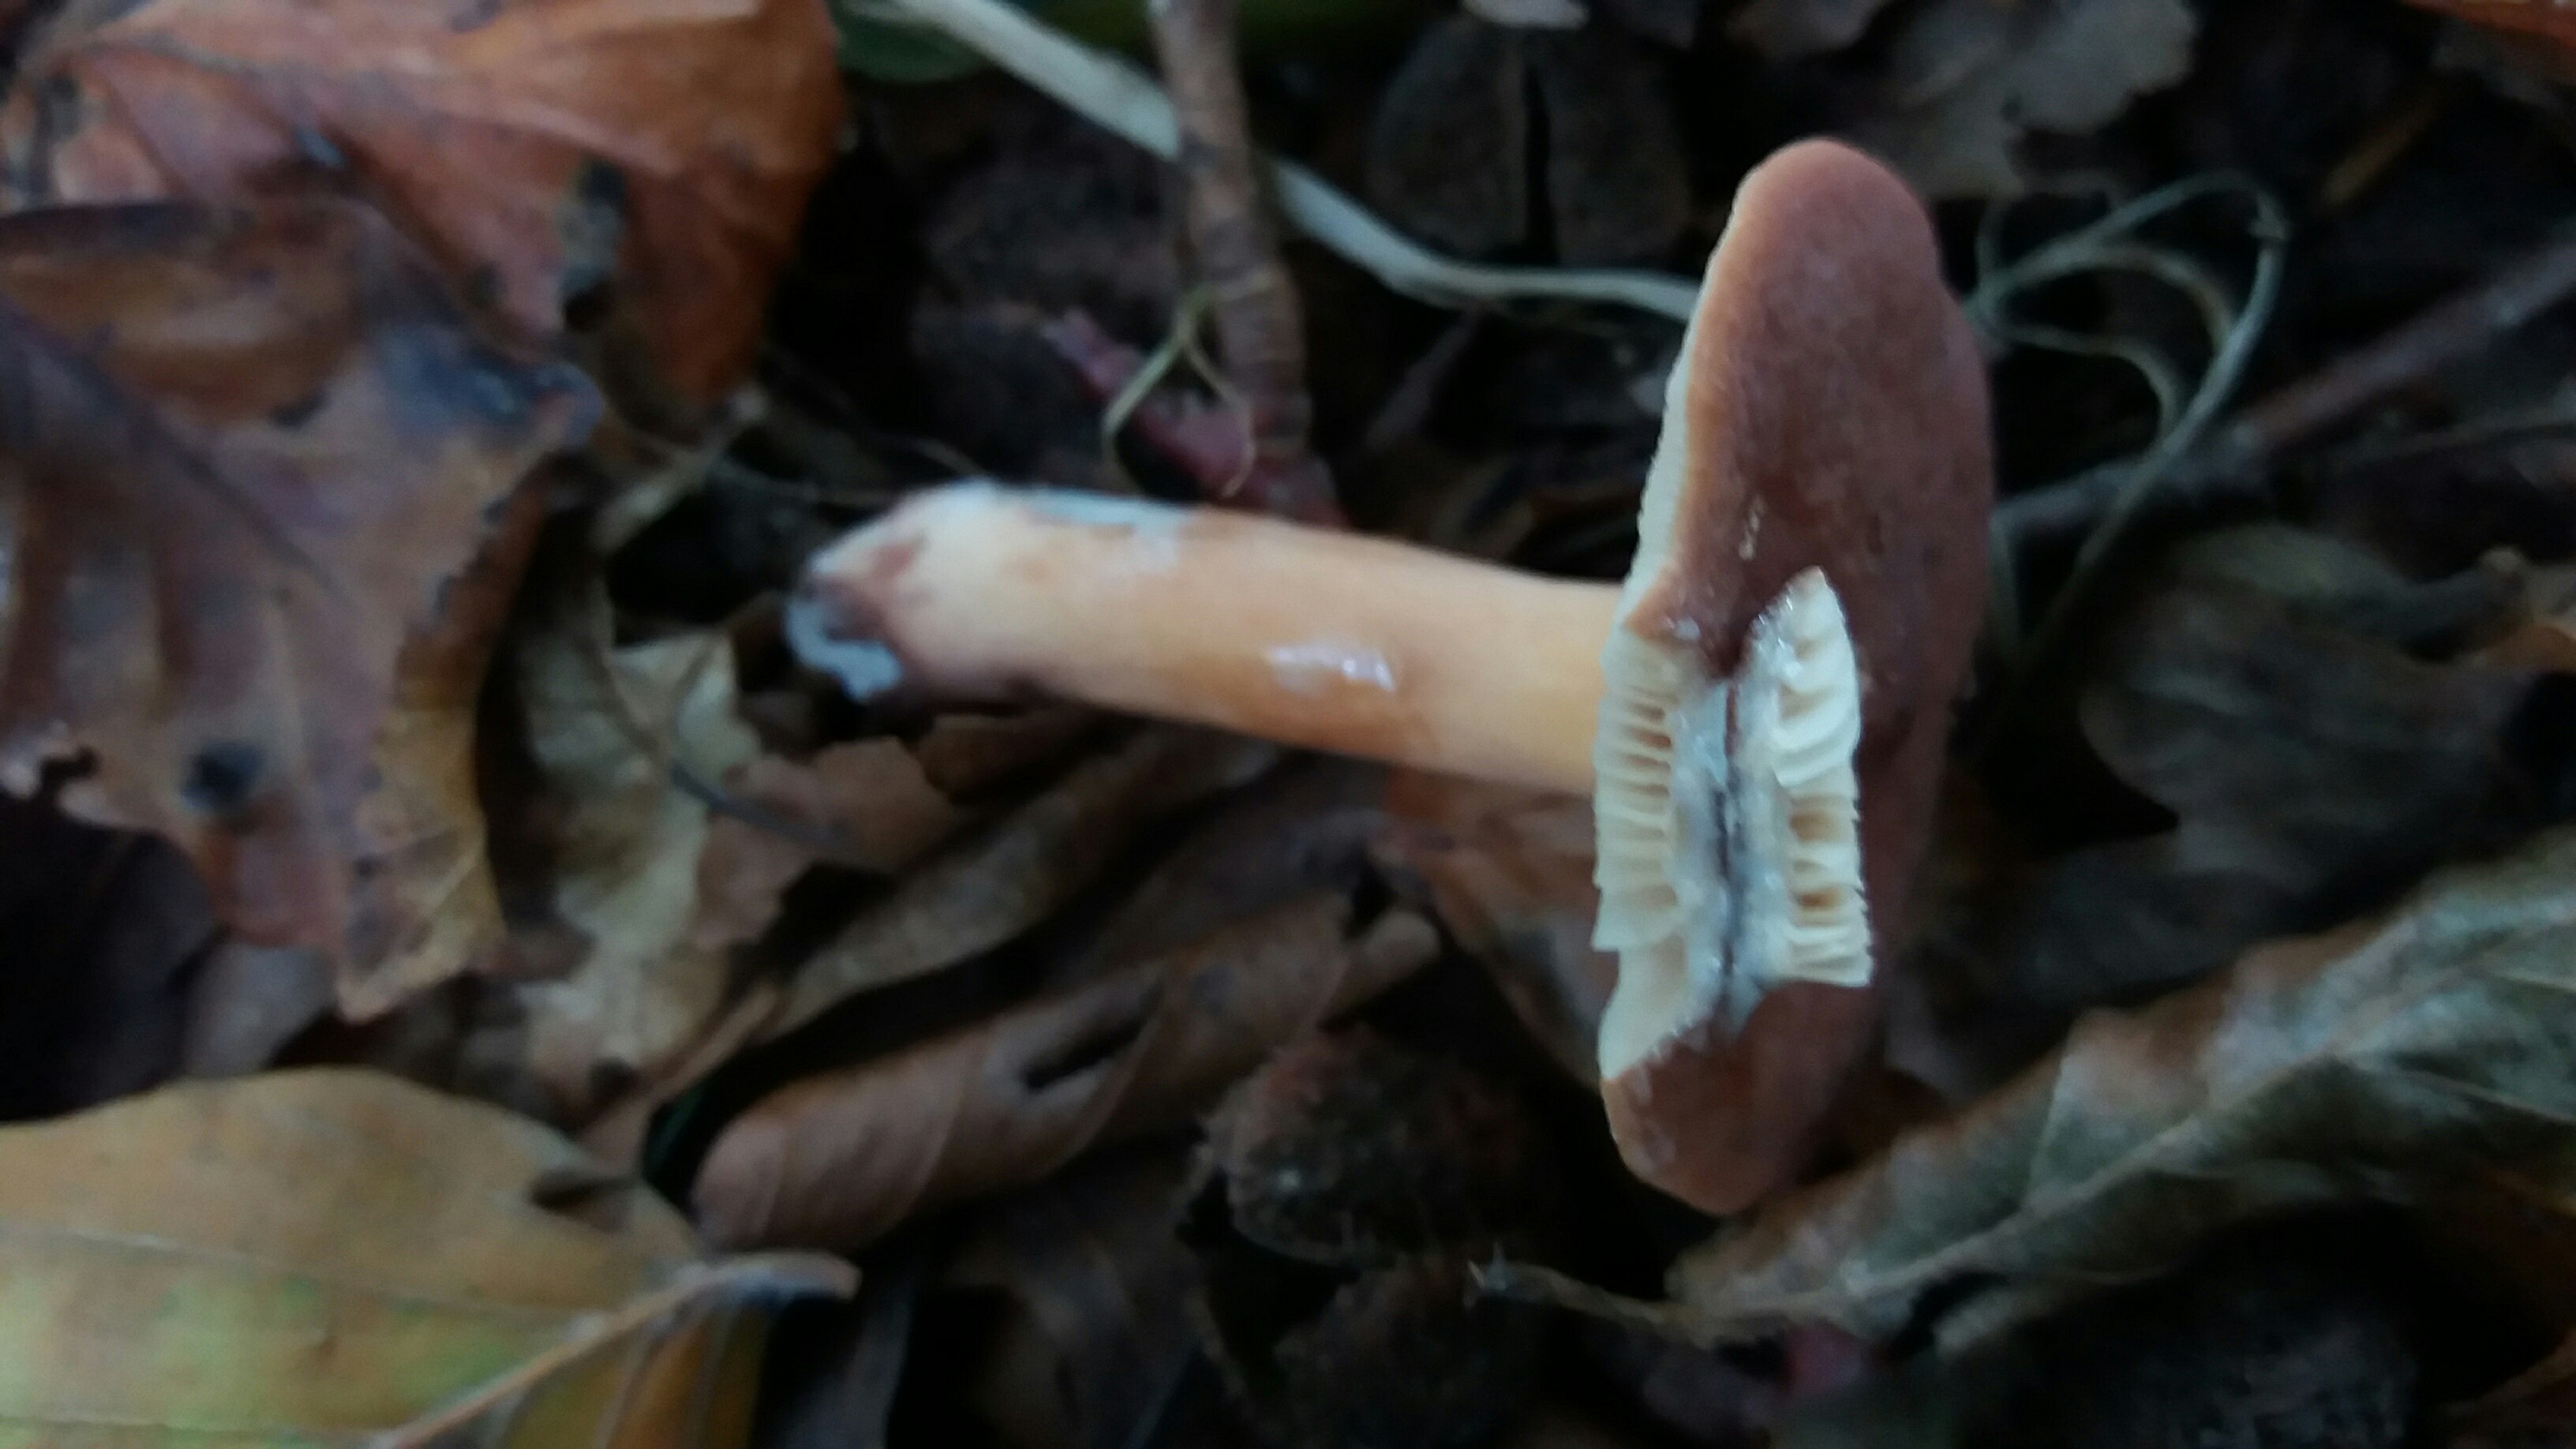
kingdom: Fungi
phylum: Basidiomycota
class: Agaricomycetes
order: Russulales
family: Russulaceae
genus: Lactarius
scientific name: Lactarius subdulcis
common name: sødlig mælkehat
